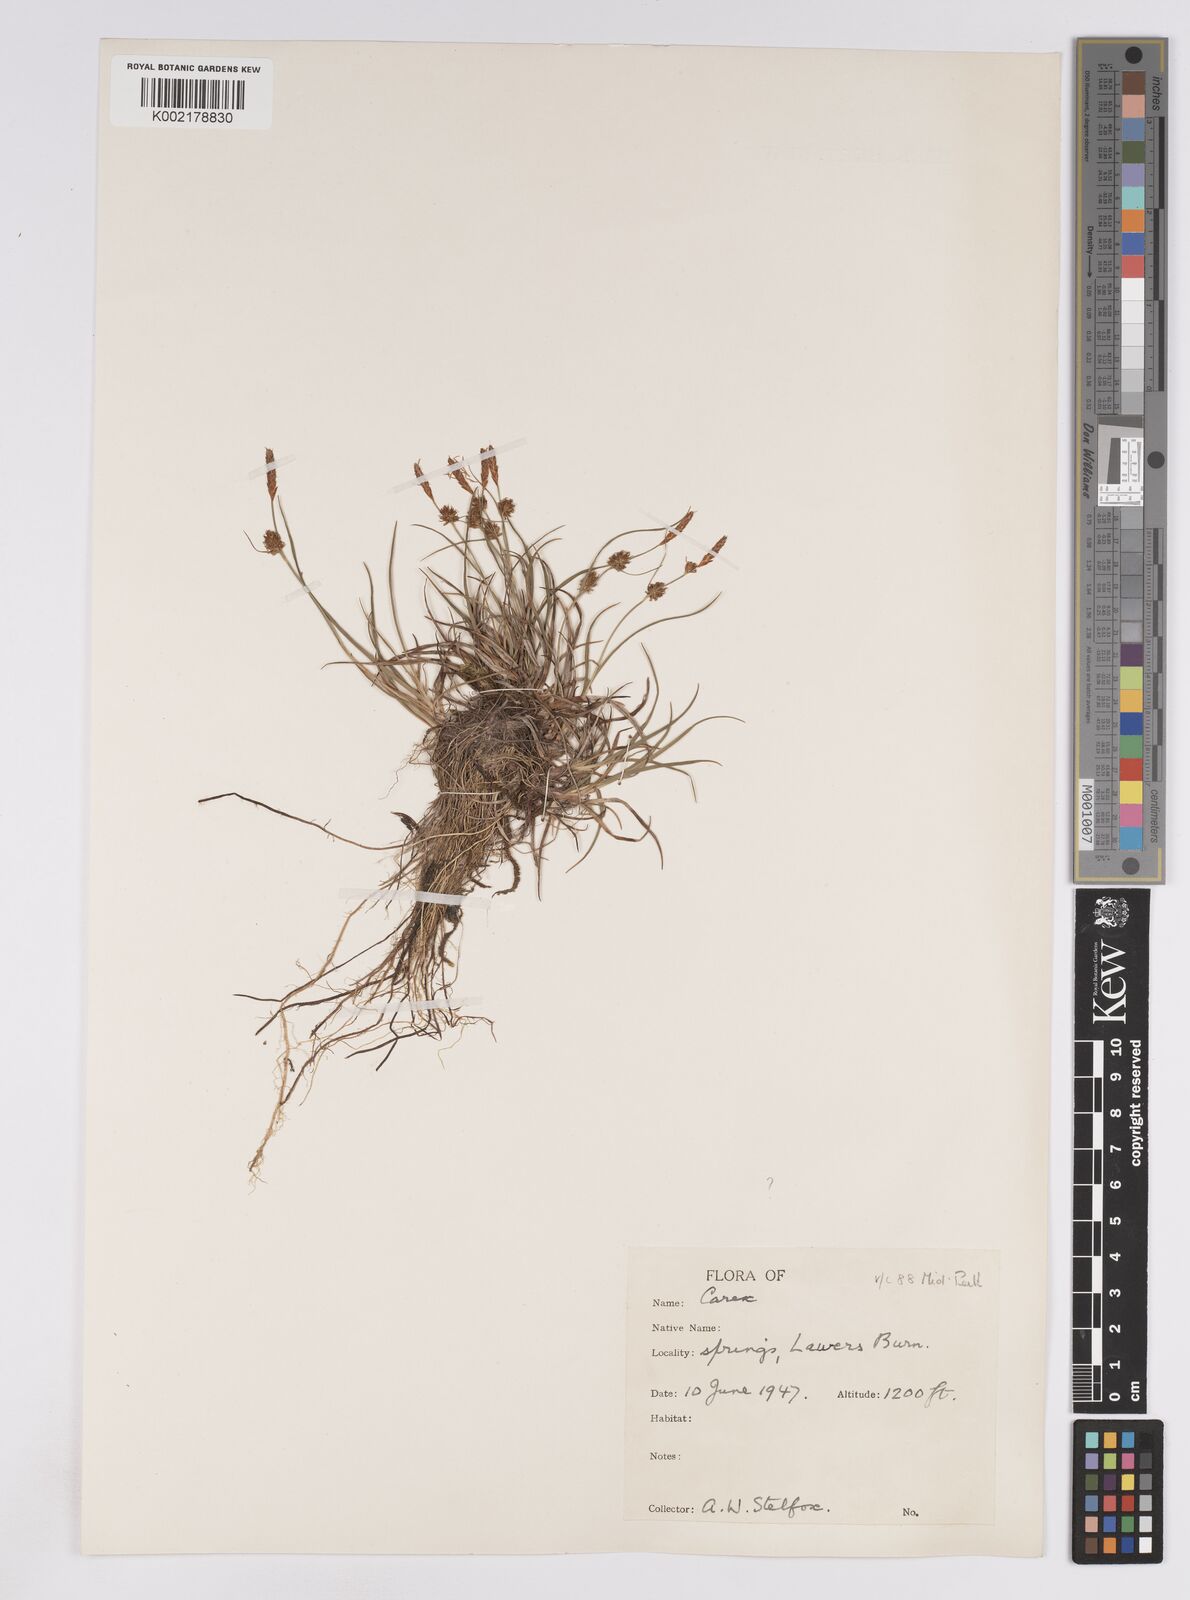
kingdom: Plantae
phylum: Tracheophyta
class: Liliopsida
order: Poales
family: Cyperaceae
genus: Carex
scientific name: Carex lepidocarpa
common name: Long-stalked yellow-sedge
